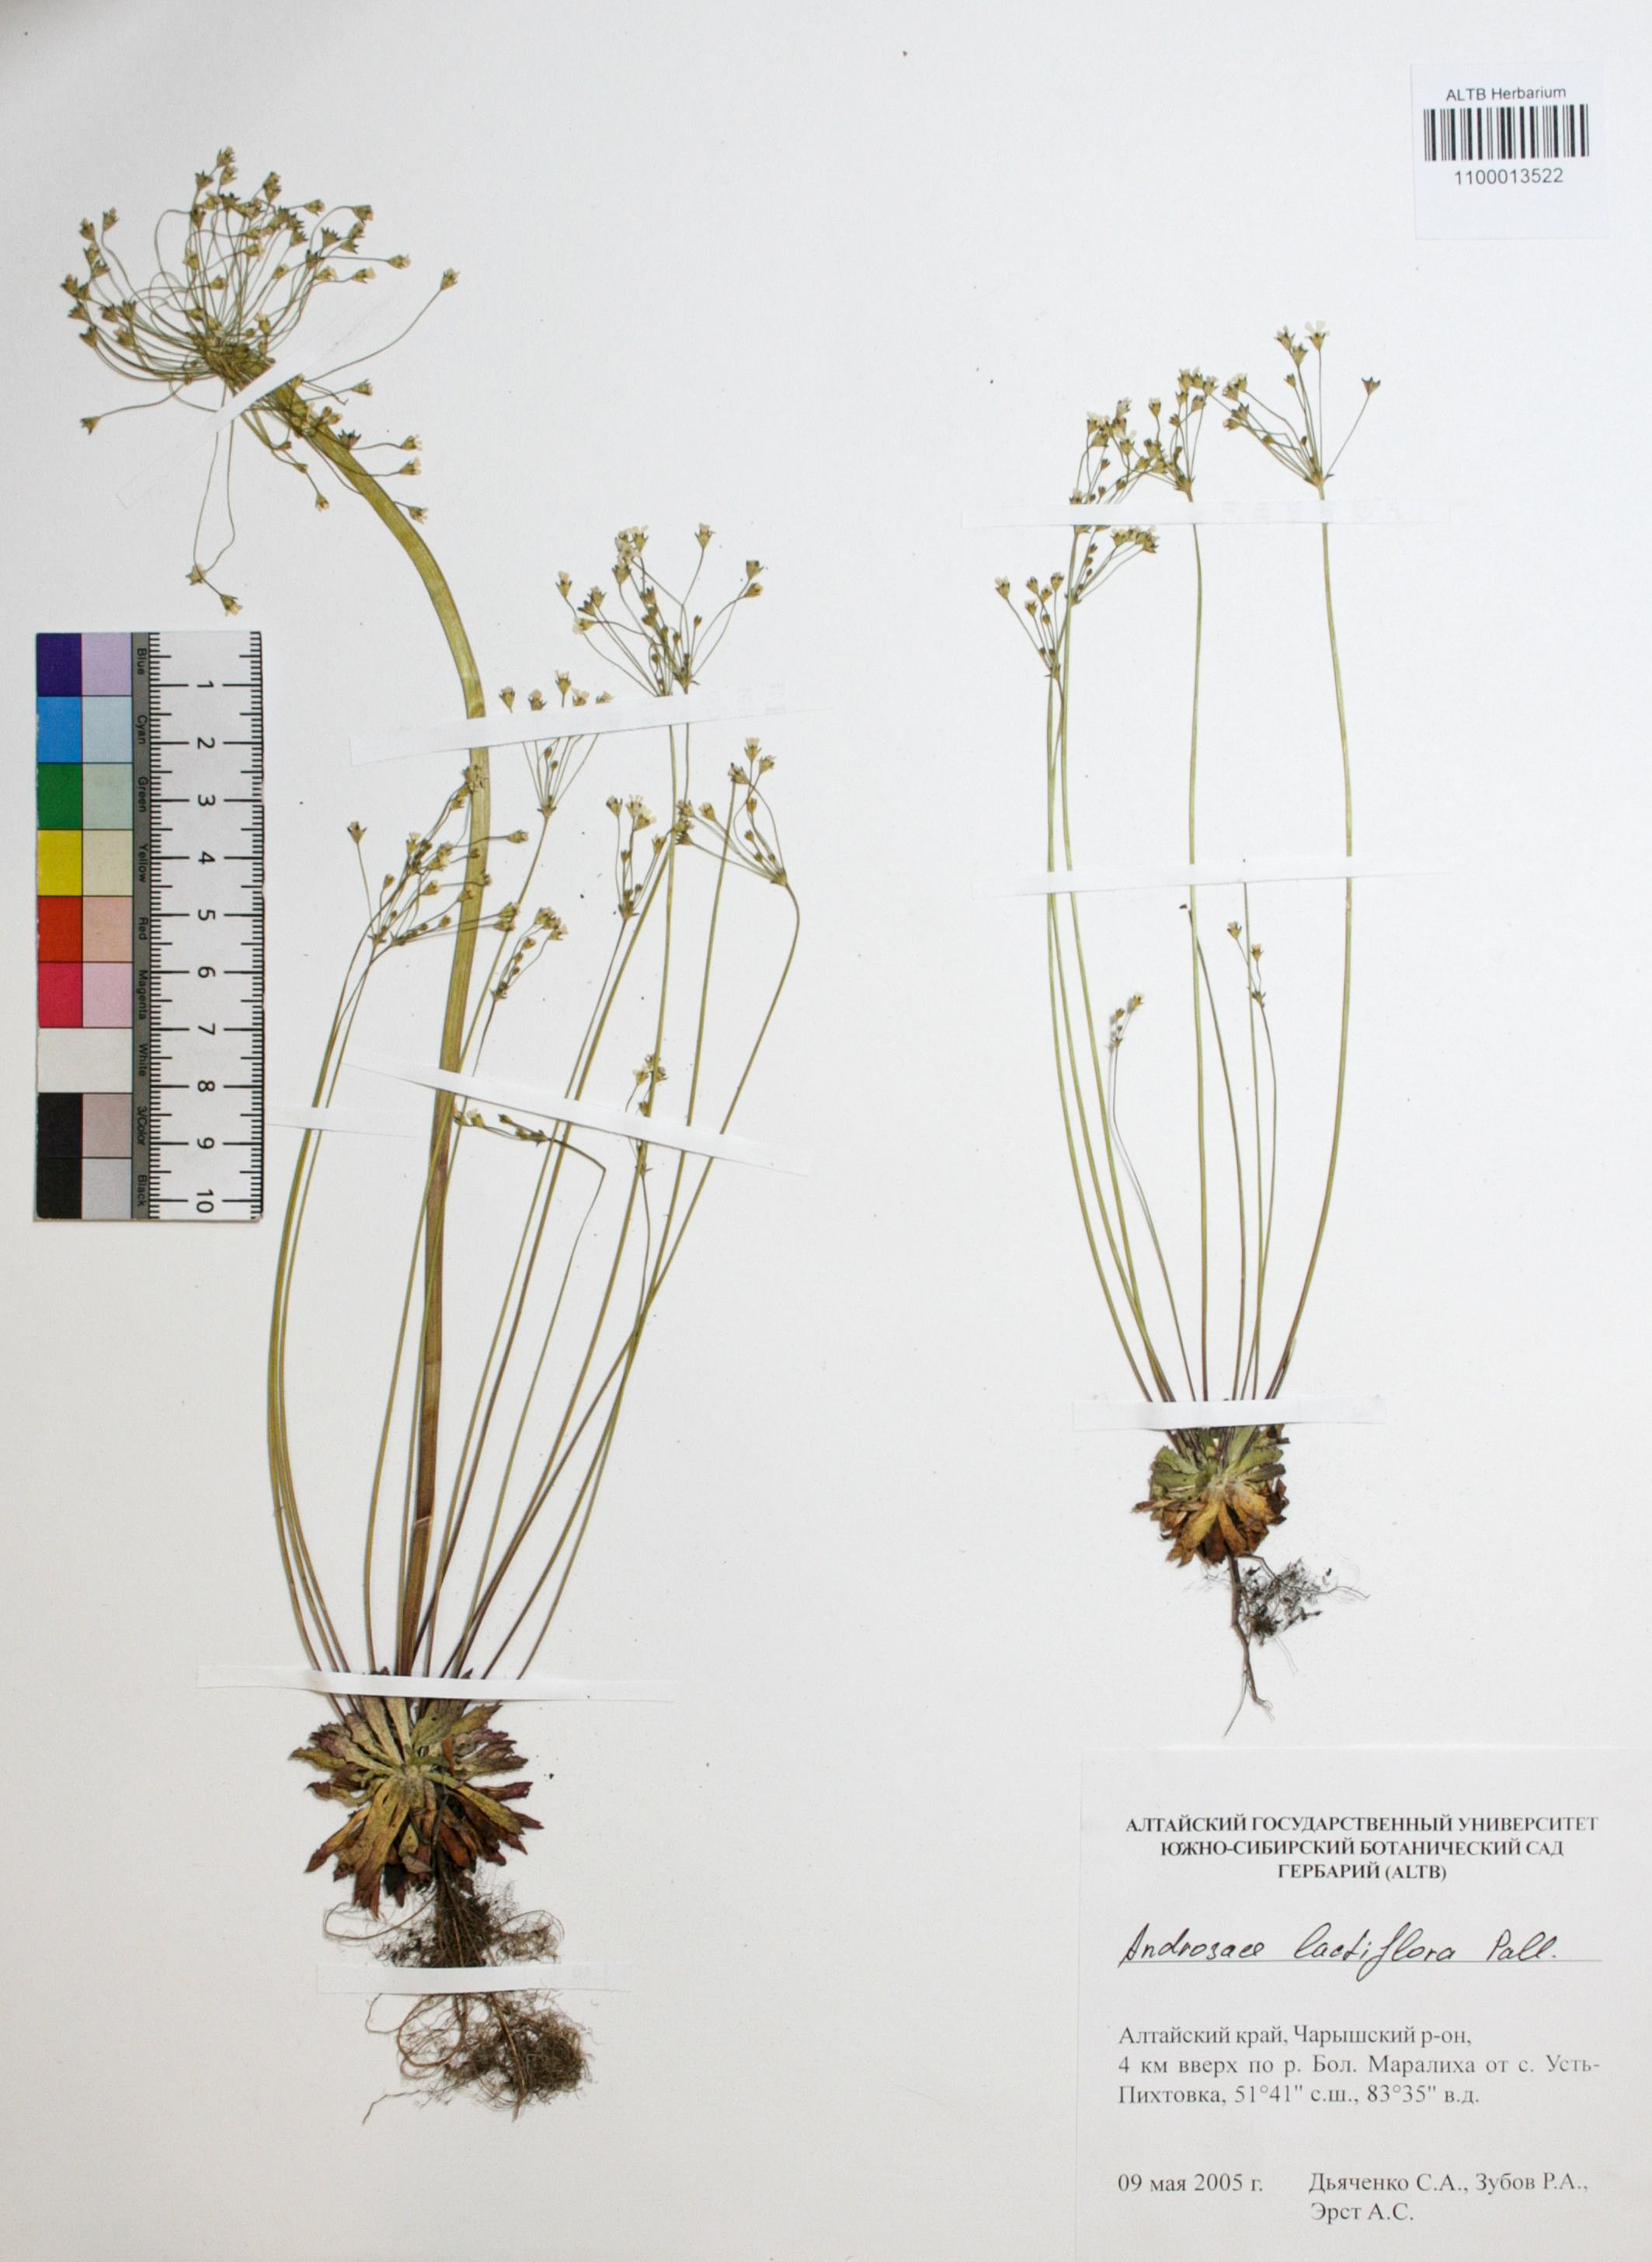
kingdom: Plantae
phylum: Tracheophyta
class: Magnoliopsida
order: Ericales
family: Primulaceae
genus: Androsace
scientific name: Androsace lactiflora
